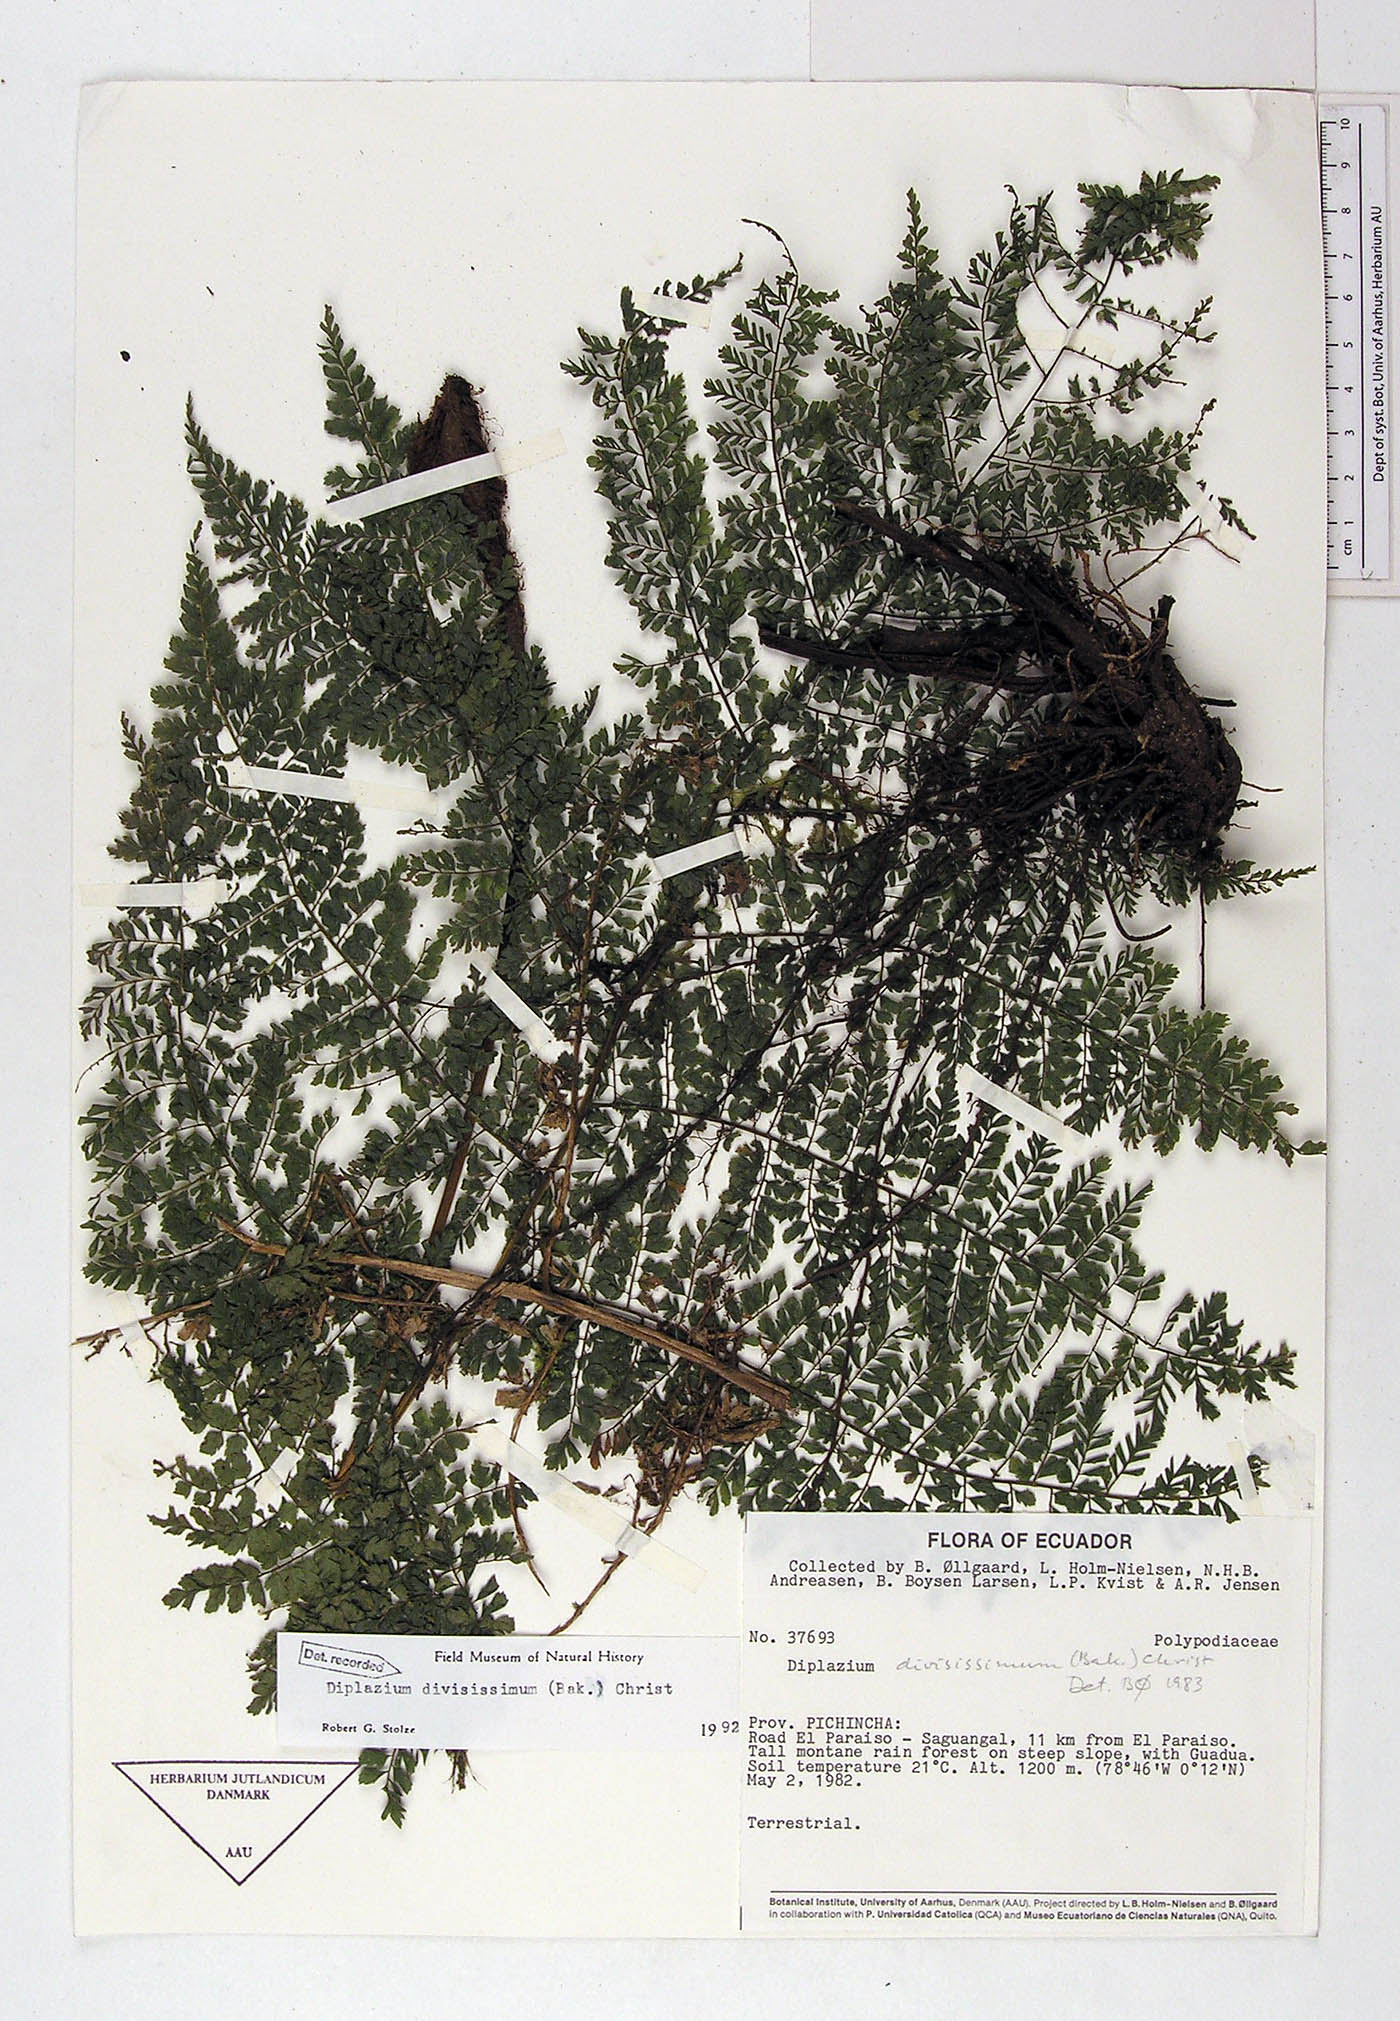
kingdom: Plantae
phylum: Tracheophyta
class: Polypodiopsida
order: Polypodiales
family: Athyriaceae
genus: Diplazium
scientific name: Diplazium divisissimum
